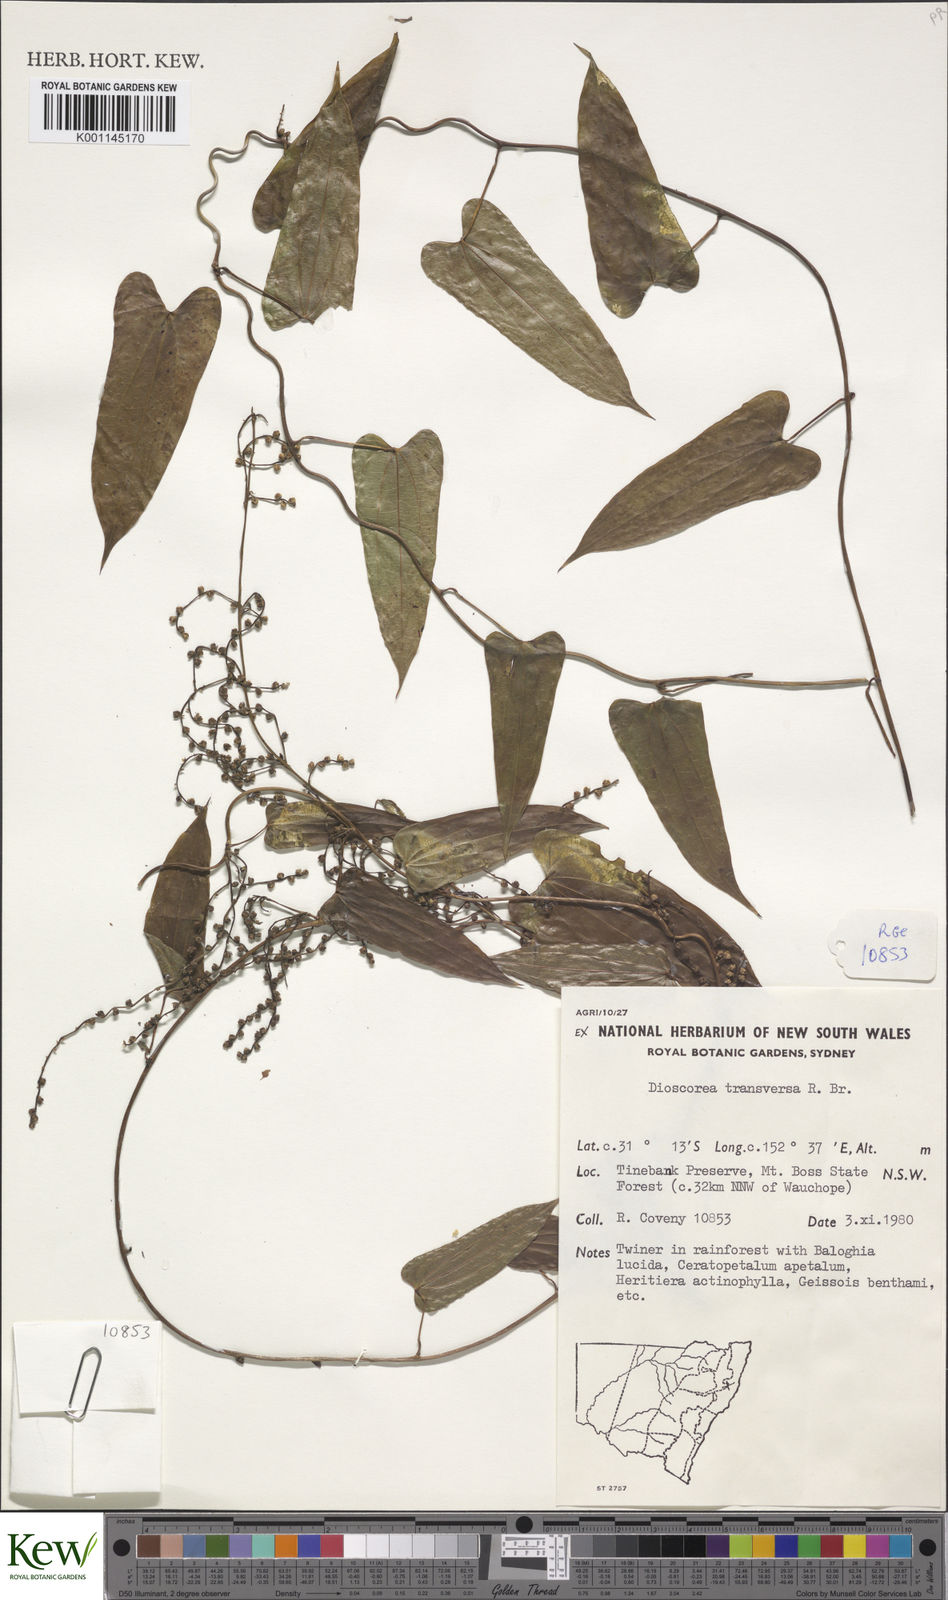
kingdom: Plantae
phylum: Tracheophyta
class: Liliopsida
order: Dioscoreales
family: Dioscoreaceae
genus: Dioscorea
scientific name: Dioscorea transversa
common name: Long yam
